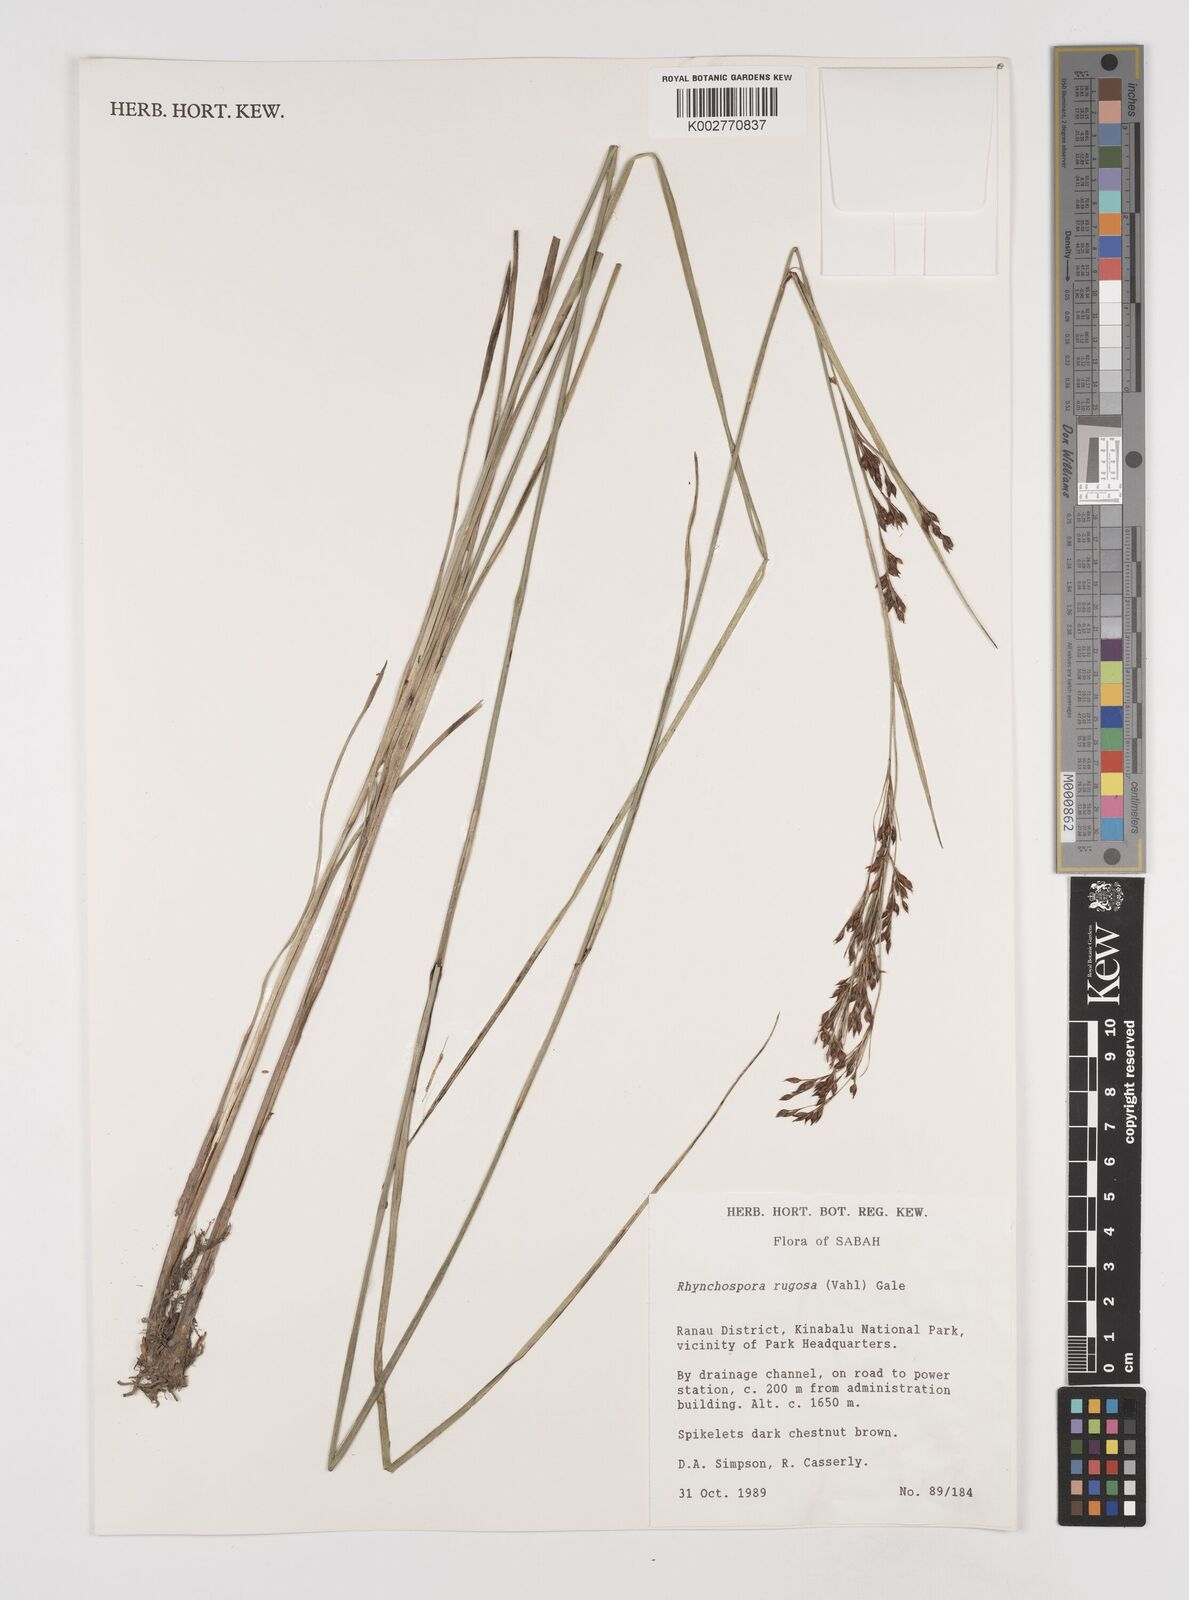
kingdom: Plantae
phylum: Tracheophyta
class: Liliopsida
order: Poales
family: Cyperaceae
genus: Rhynchospora
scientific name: Rhynchospora rugosa
